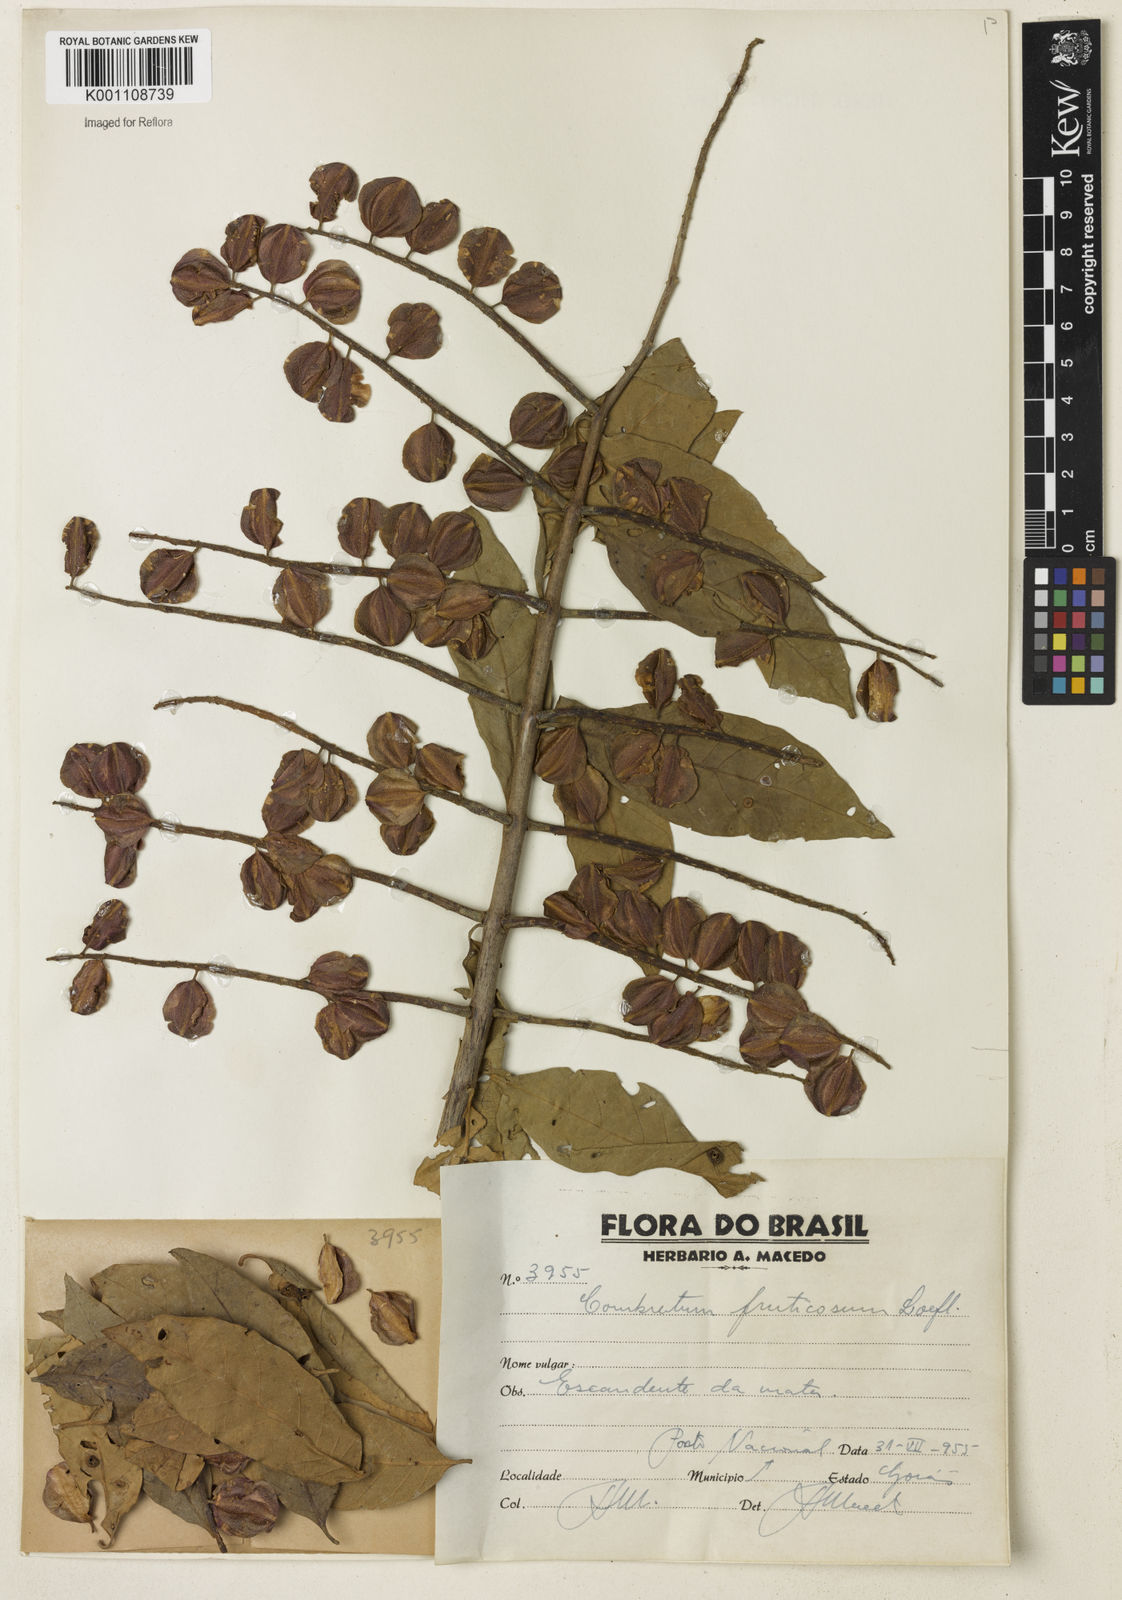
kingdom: Plantae
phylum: Tracheophyta
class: Magnoliopsida
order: Myrtales
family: Combretaceae
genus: Combretum
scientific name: Combretum fruticosum
